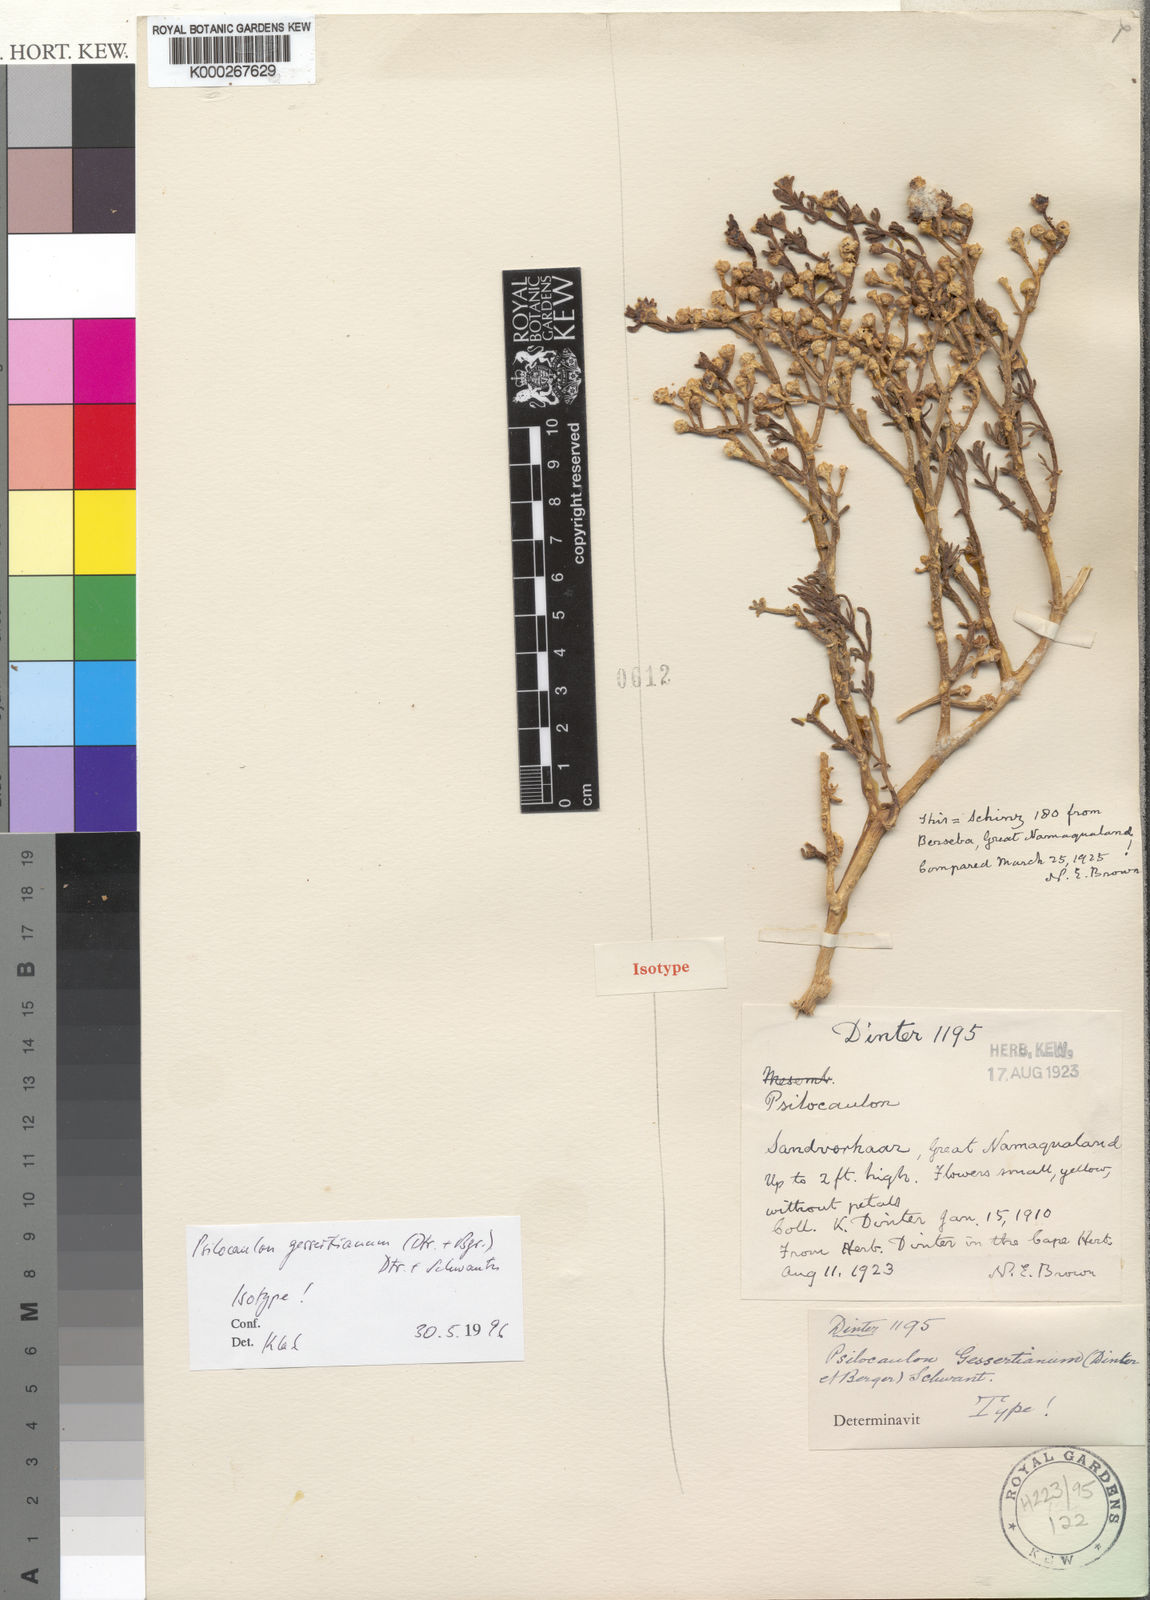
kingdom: Plantae
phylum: Tracheophyta
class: Magnoliopsida
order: Caryophyllales
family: Aizoaceae
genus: Mesembryanthemum
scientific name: Mesembryanthemum
